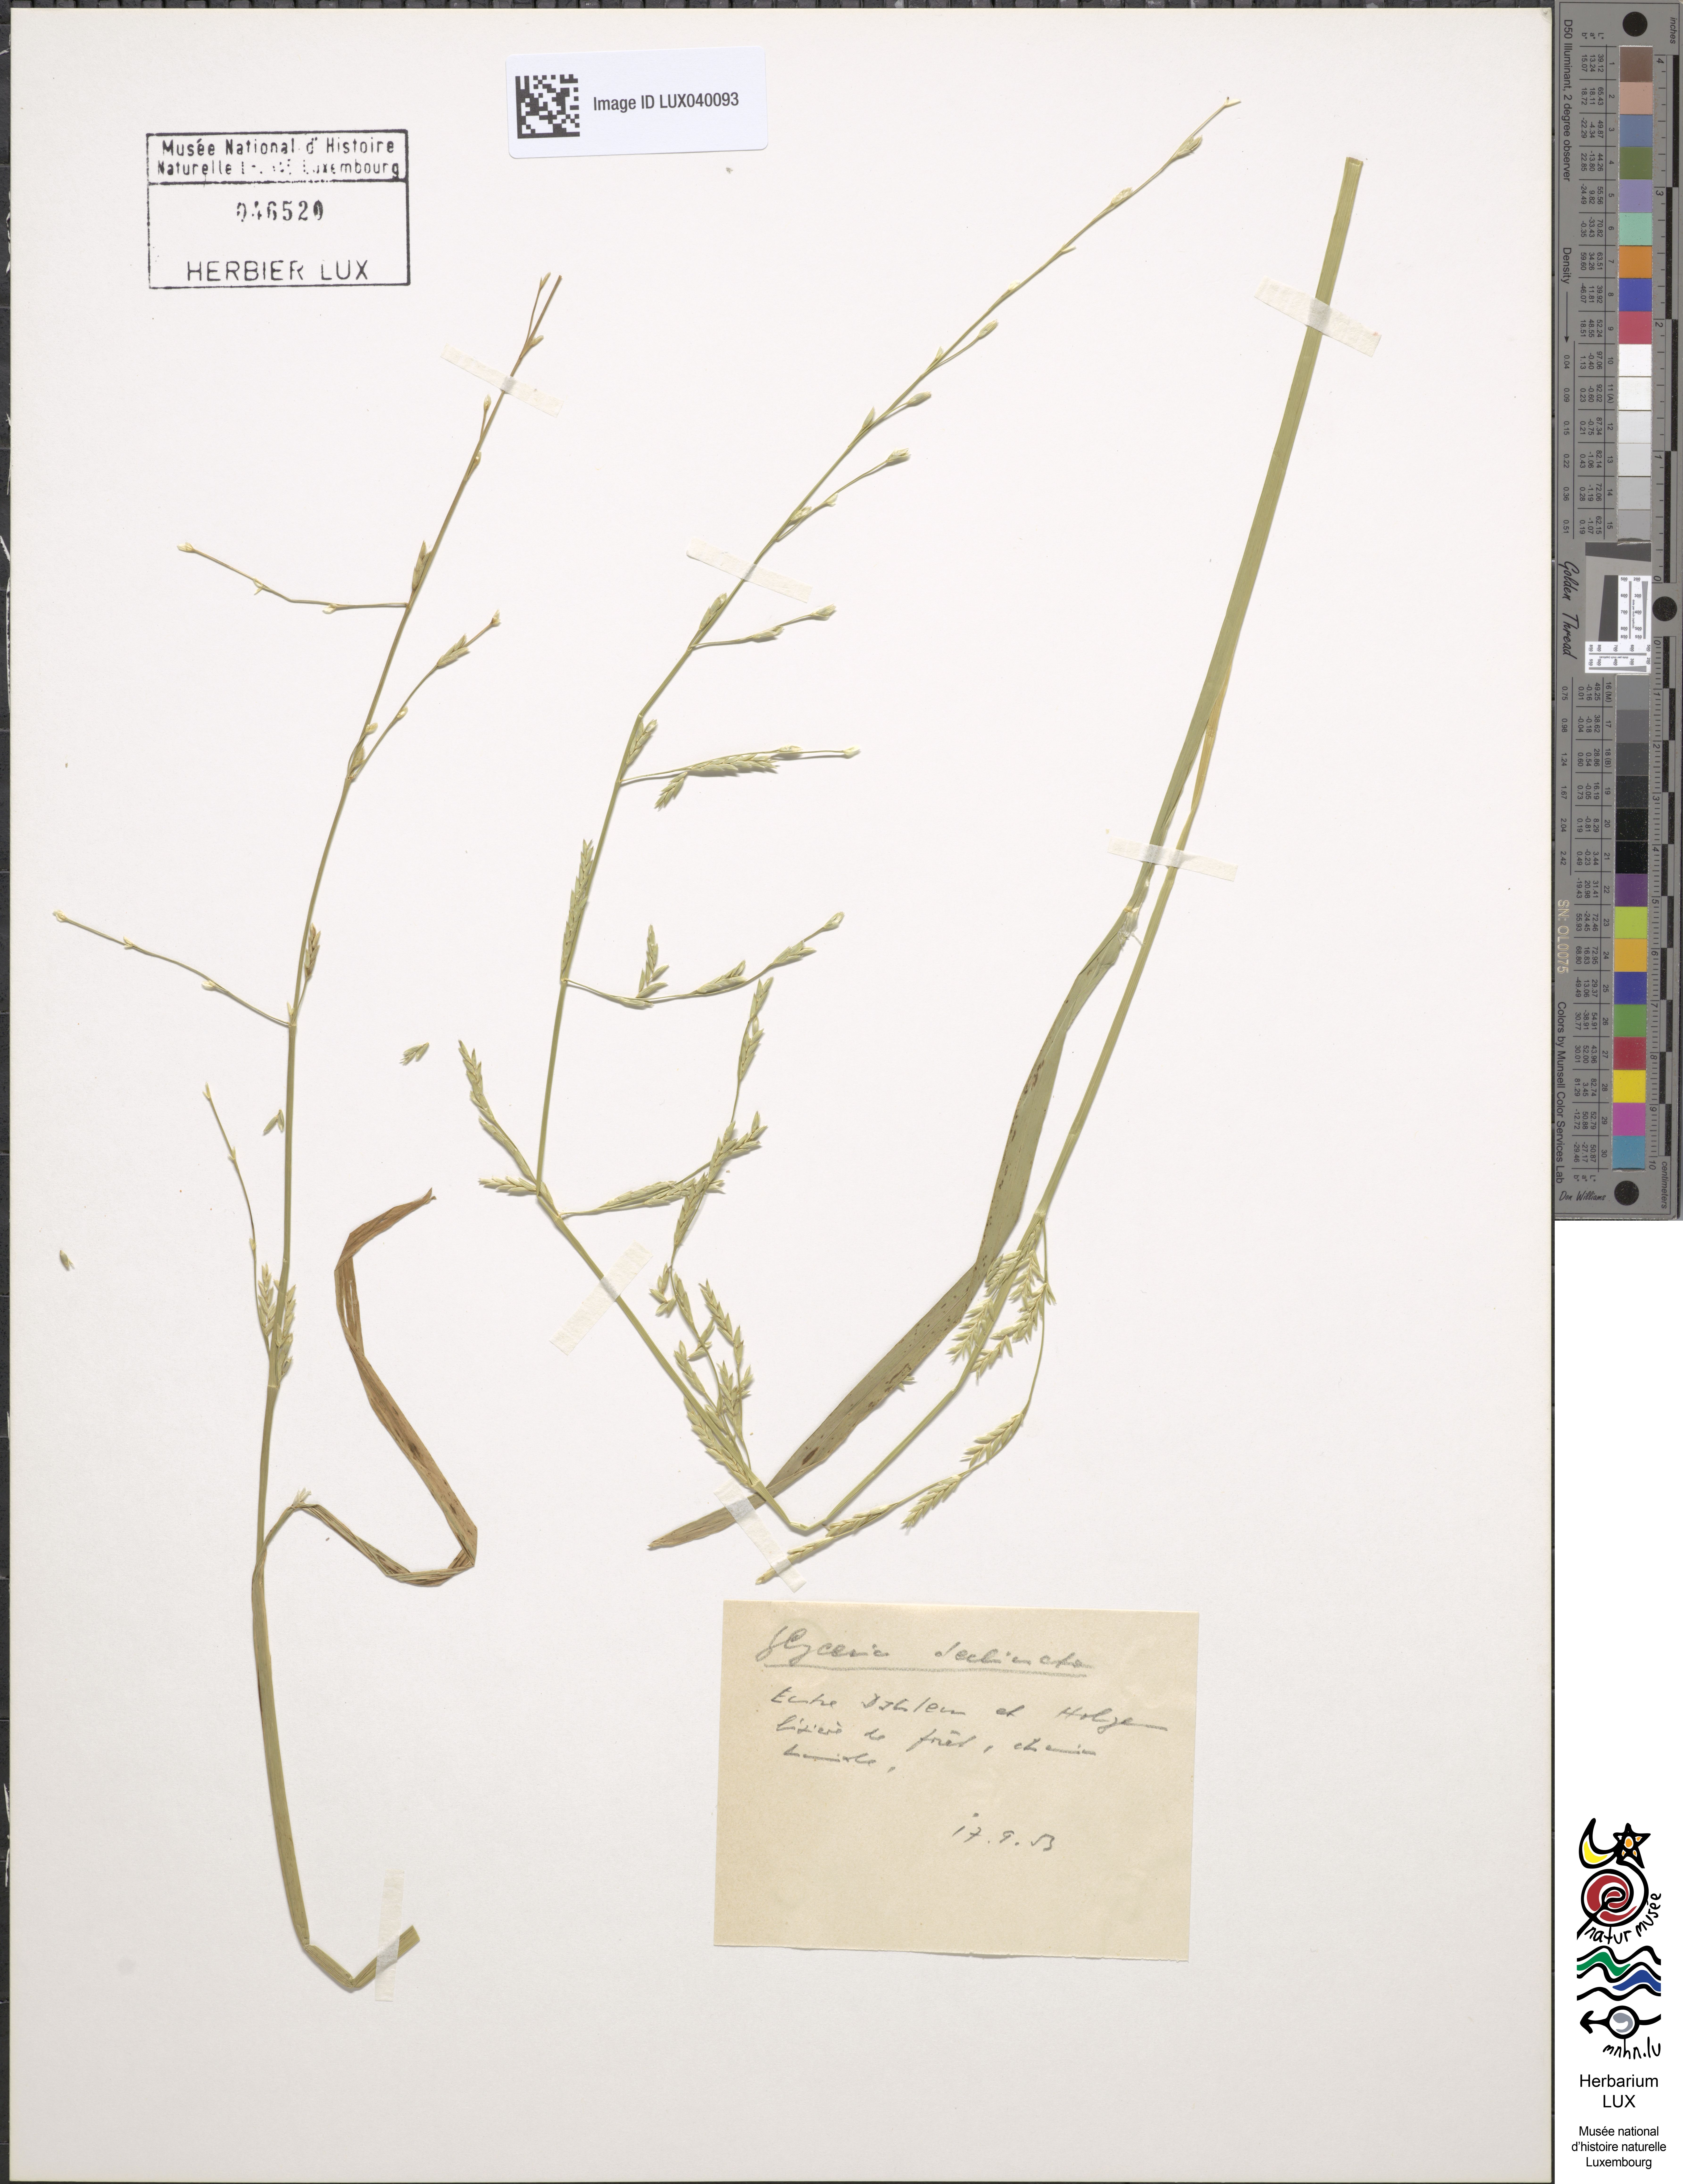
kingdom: Plantae
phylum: Tracheophyta
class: Liliopsida
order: Poales
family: Poaceae
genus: Glyceria
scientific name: Glyceria declinata
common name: Small sweet-grass
